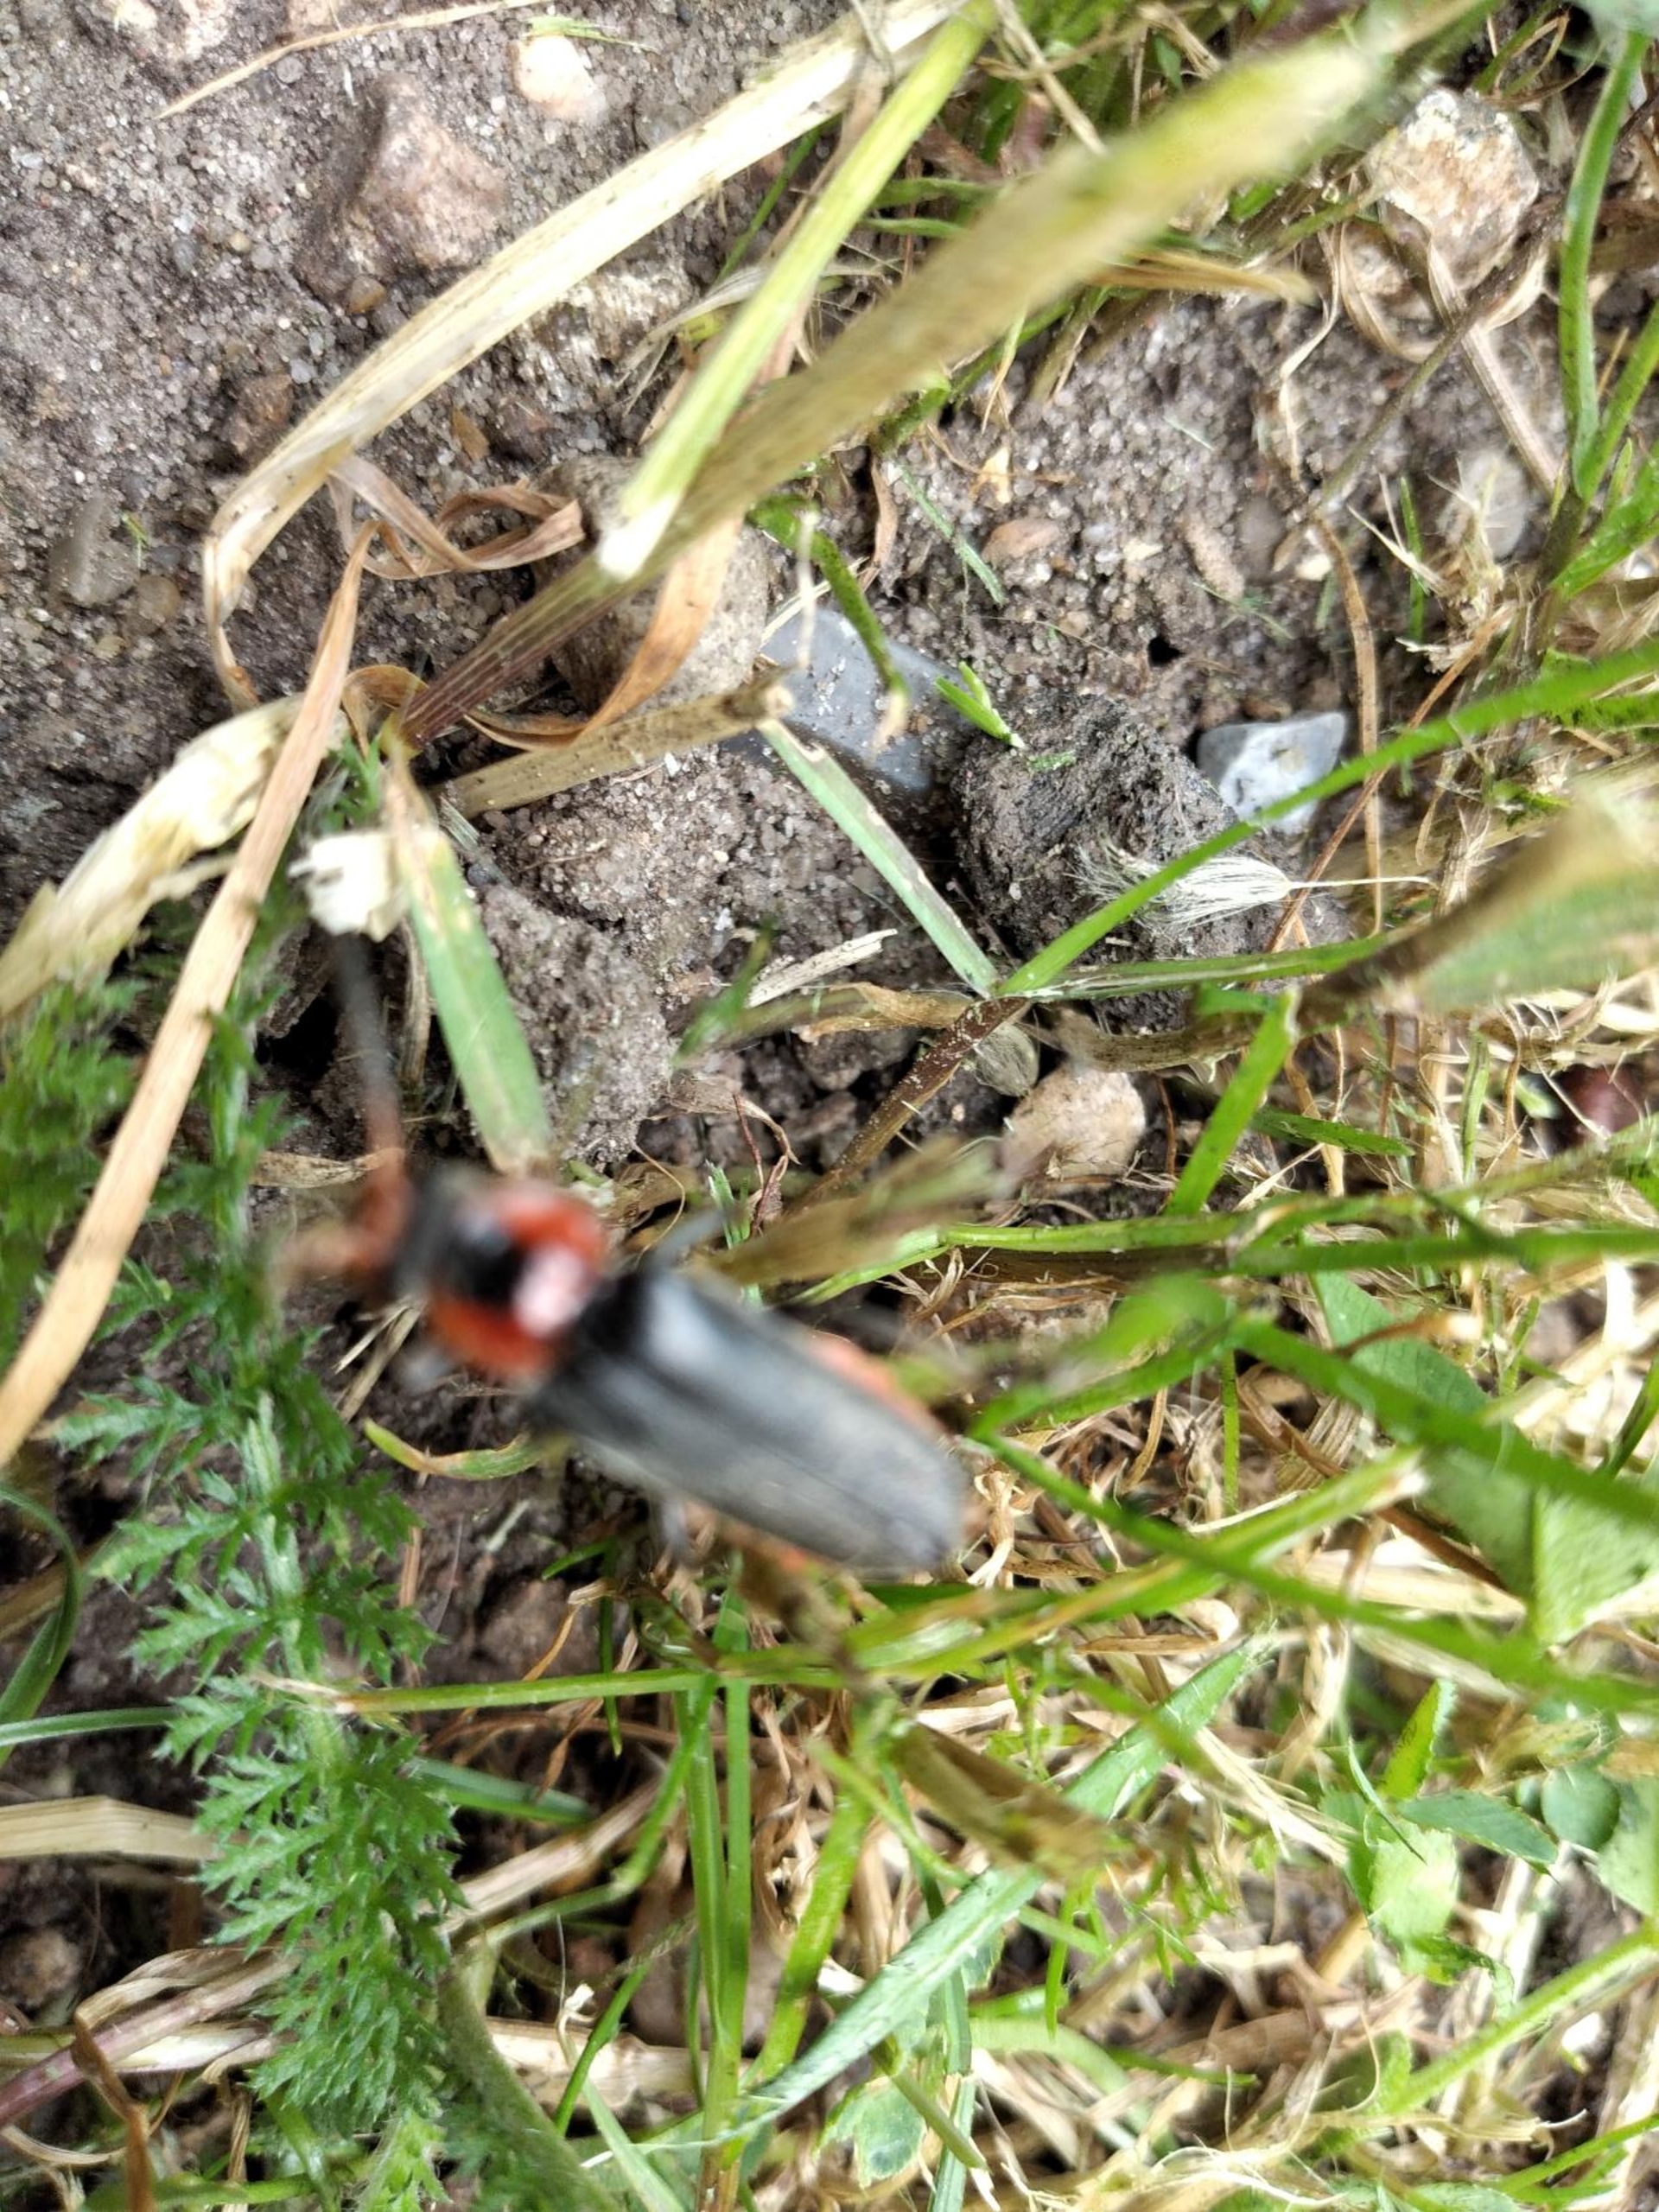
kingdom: Animalia
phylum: Arthropoda
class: Insecta
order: Coleoptera
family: Cantharidae
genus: Cantharis
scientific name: Cantharis fusca
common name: Stor blødvinge
